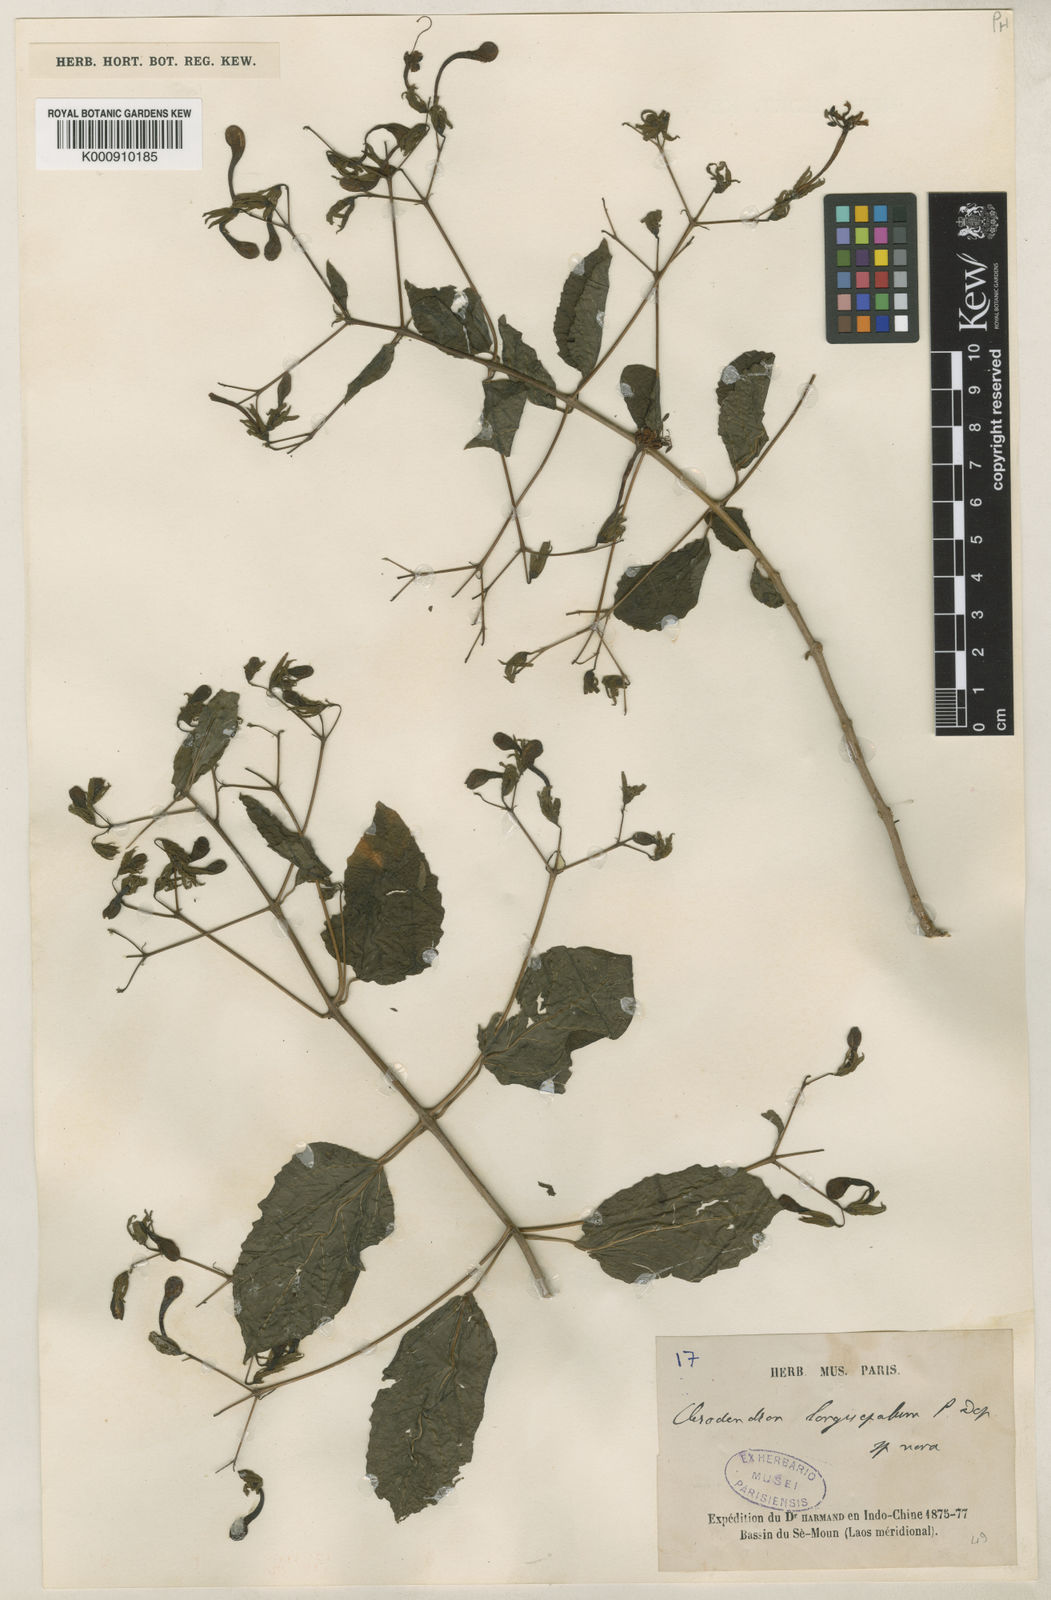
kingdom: Plantae
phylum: Tracheophyta
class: Magnoliopsida
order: Lamiales
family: Lamiaceae
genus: Clerodendrum
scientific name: Clerodendrum longisepalum
